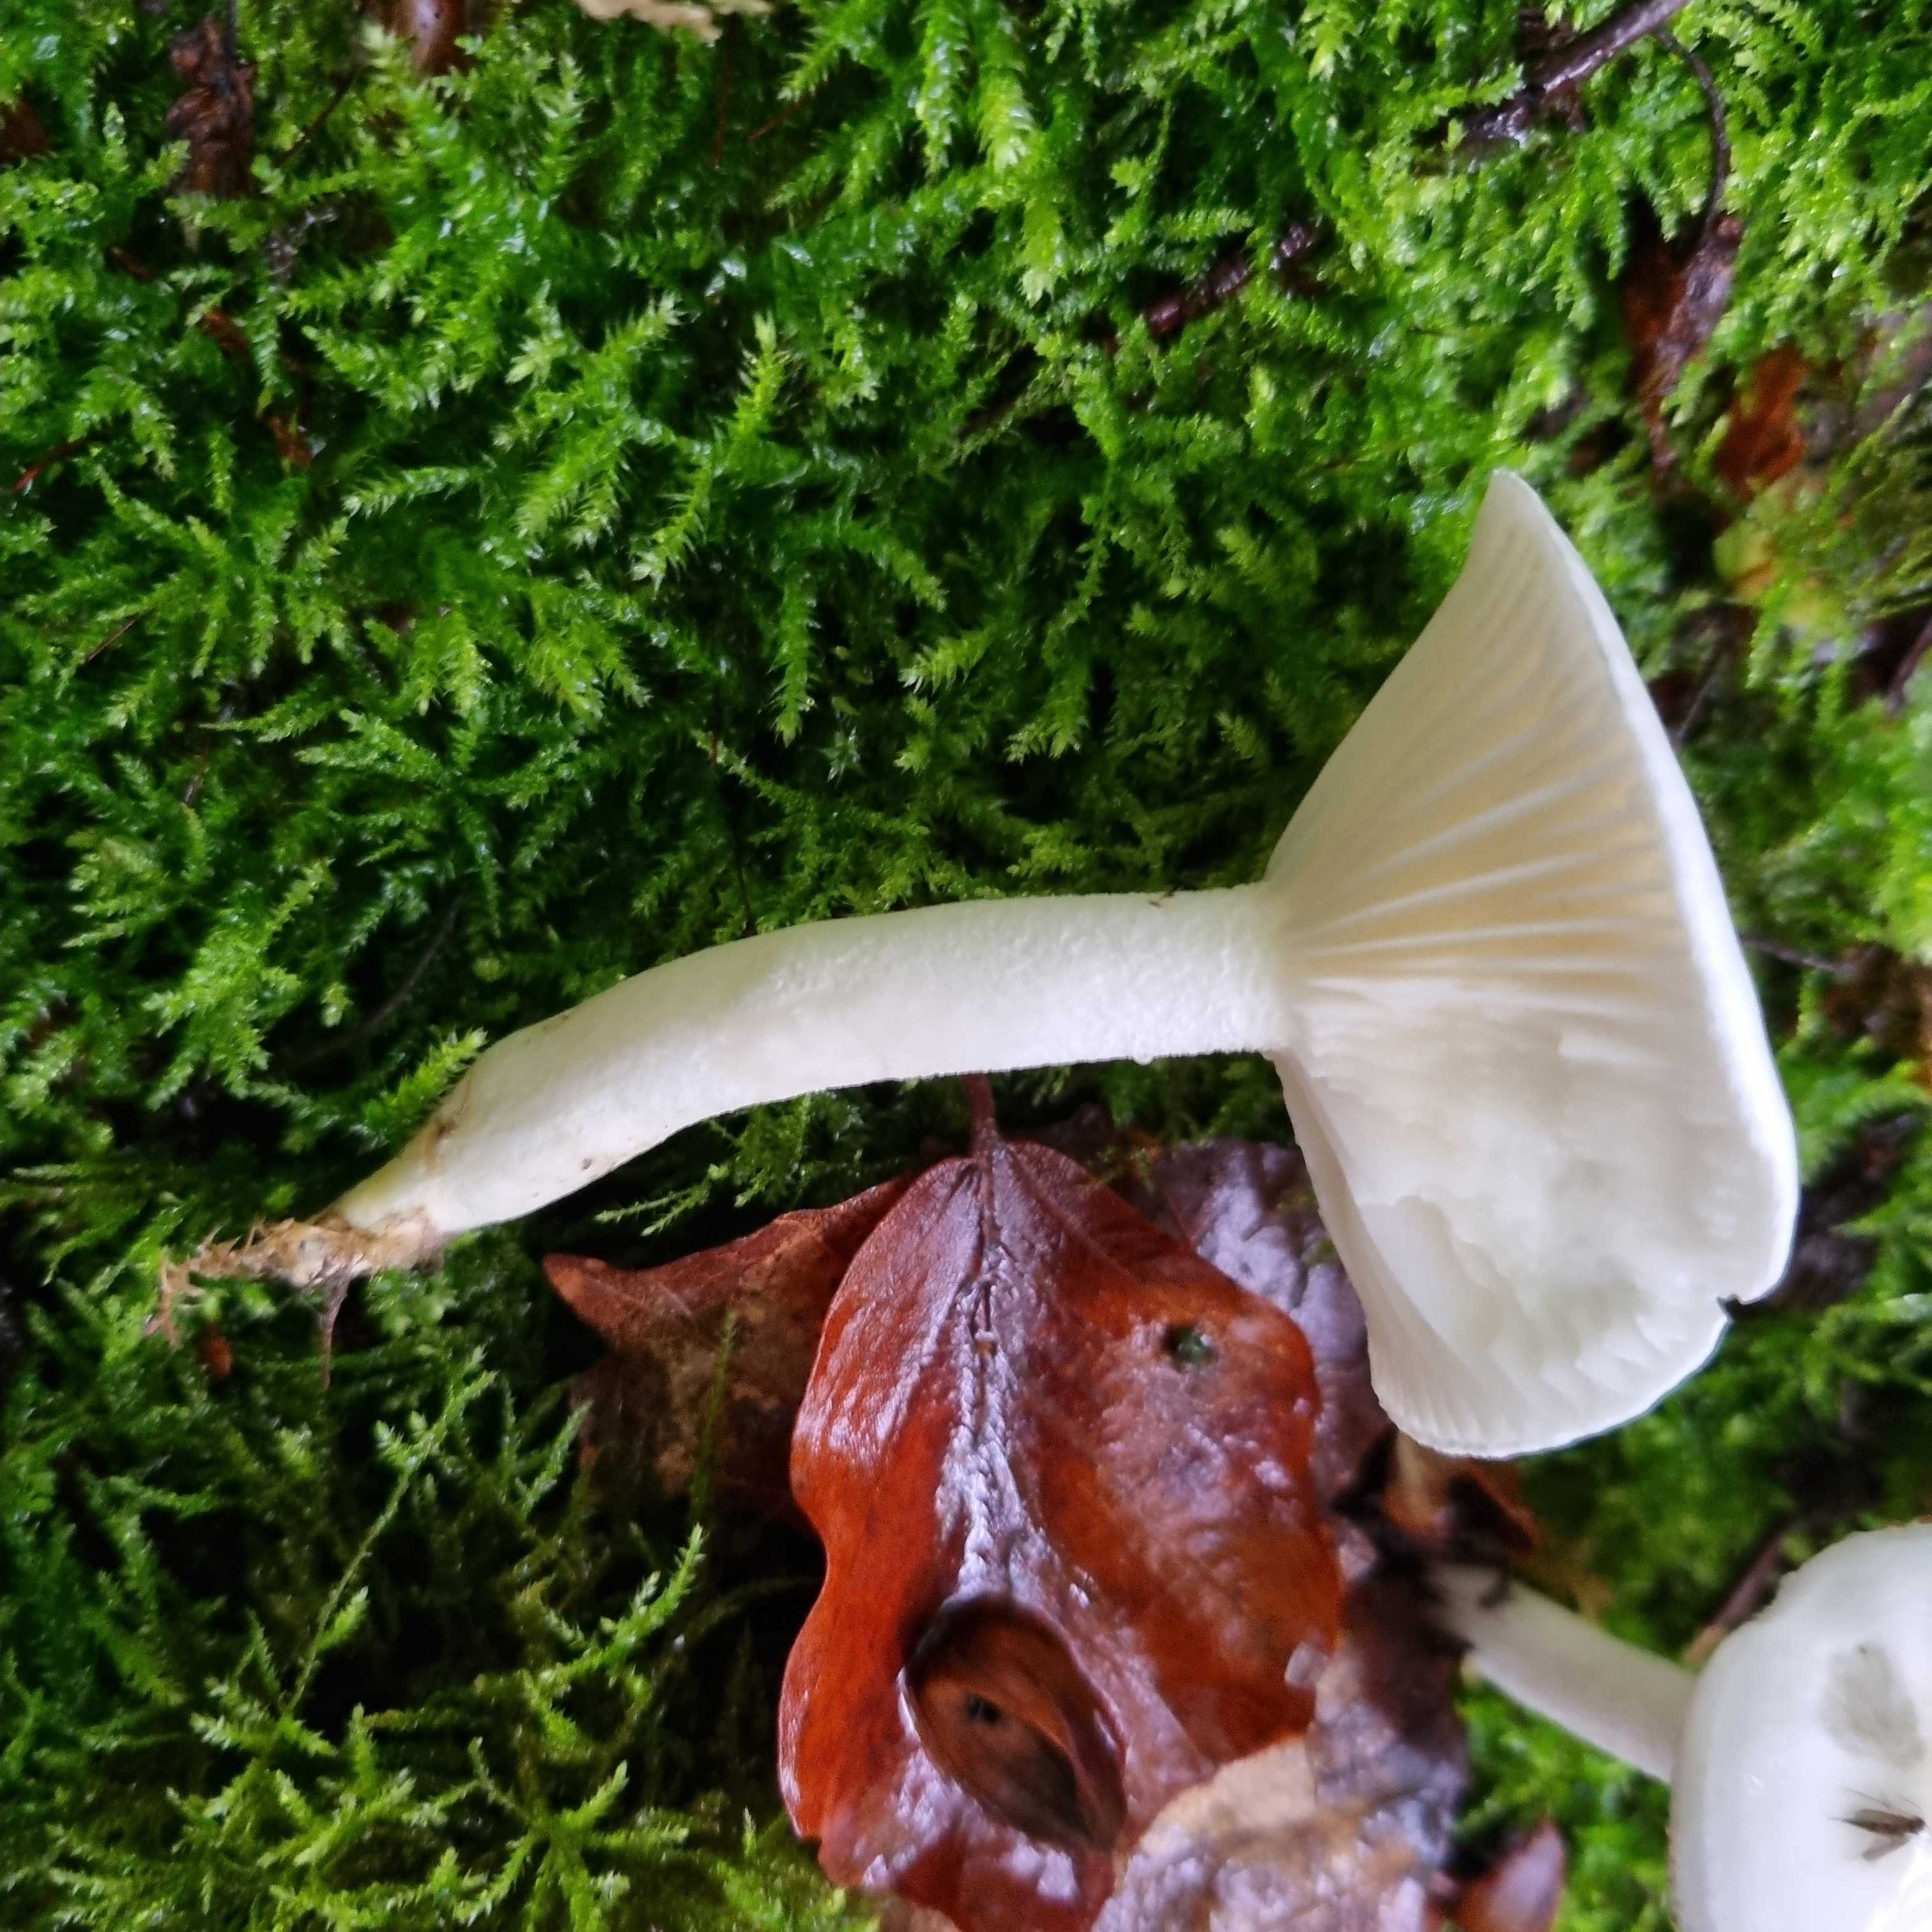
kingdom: Fungi
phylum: Basidiomycota
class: Agaricomycetes
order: Agaricales
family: Hygrophoraceae
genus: Hygrophorus
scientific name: Hygrophorus
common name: sneglehat
